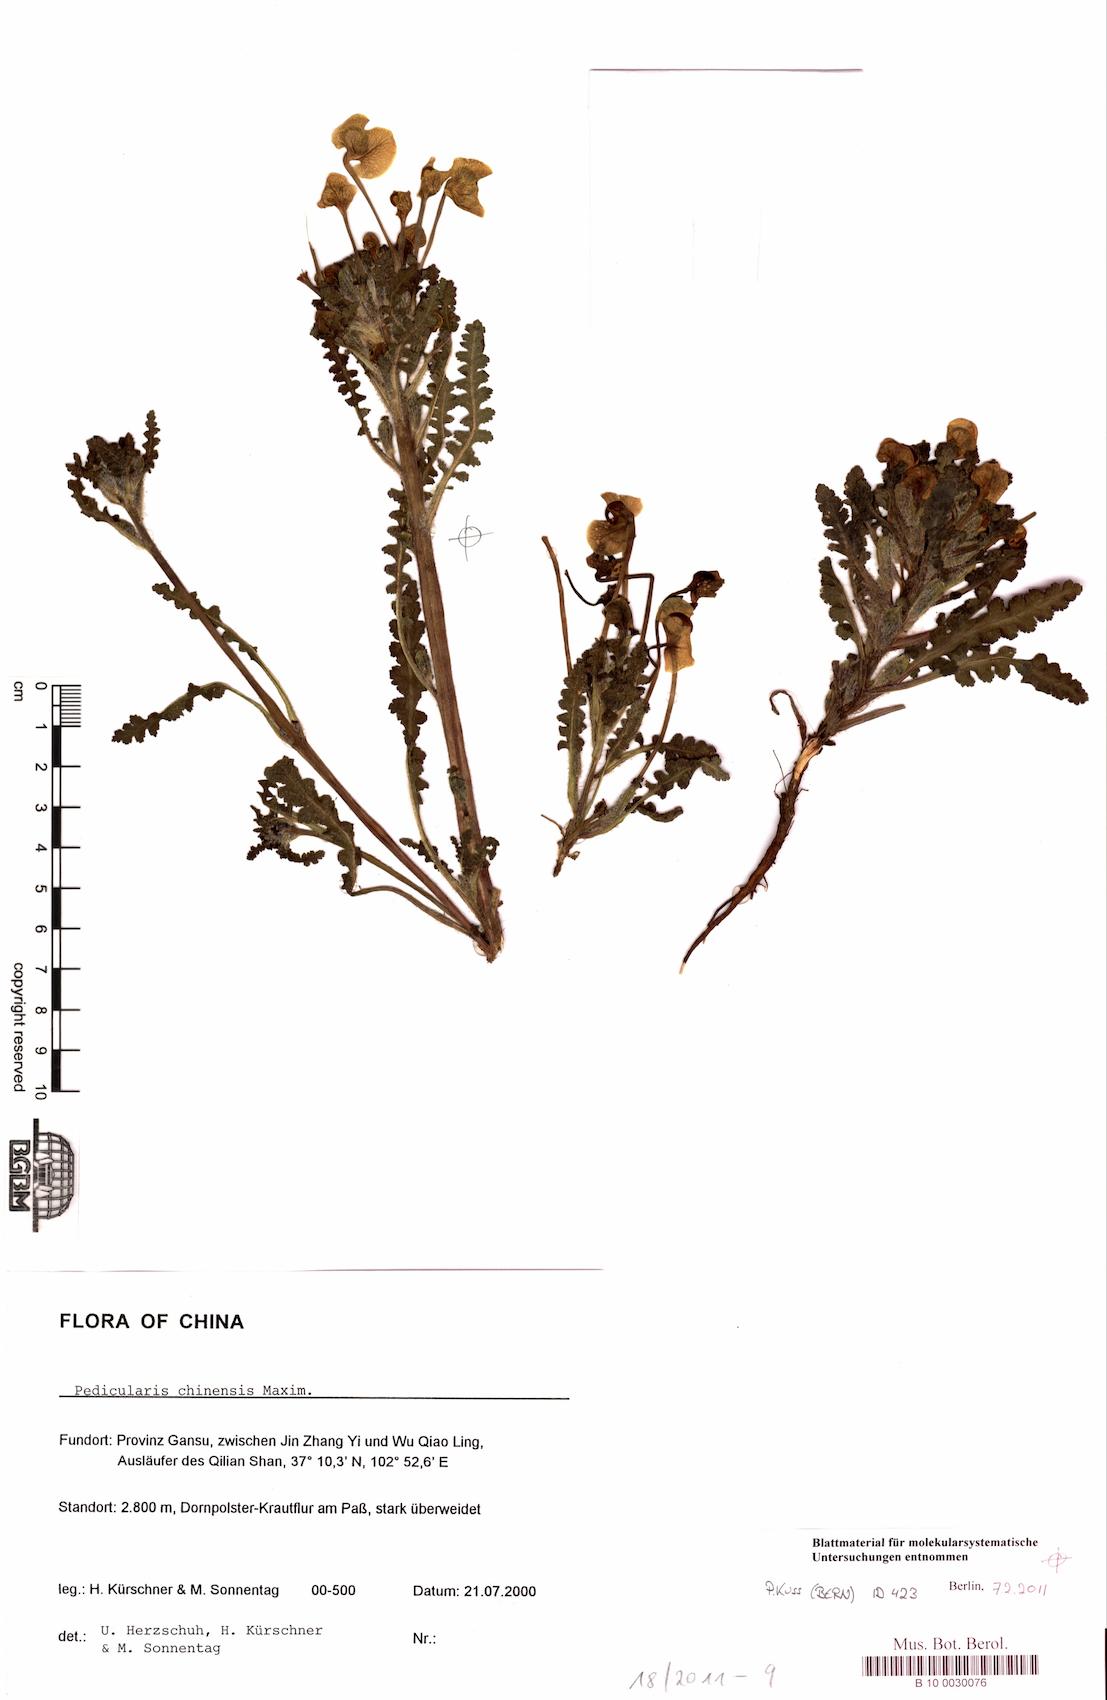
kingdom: Plantae
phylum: Tracheophyta
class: Magnoliopsida
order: Lamiales
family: Orobanchaceae
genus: Pedicularis
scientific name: Pedicularis chinensis
